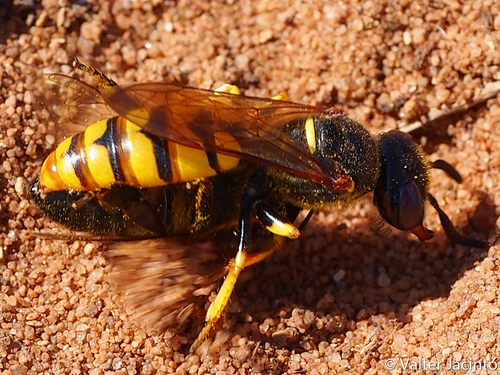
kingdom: Animalia
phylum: Arthropoda
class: Insecta
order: Hymenoptera
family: Crabronidae
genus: Philanthus
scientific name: Philanthus triangulum
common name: Bee wolf
